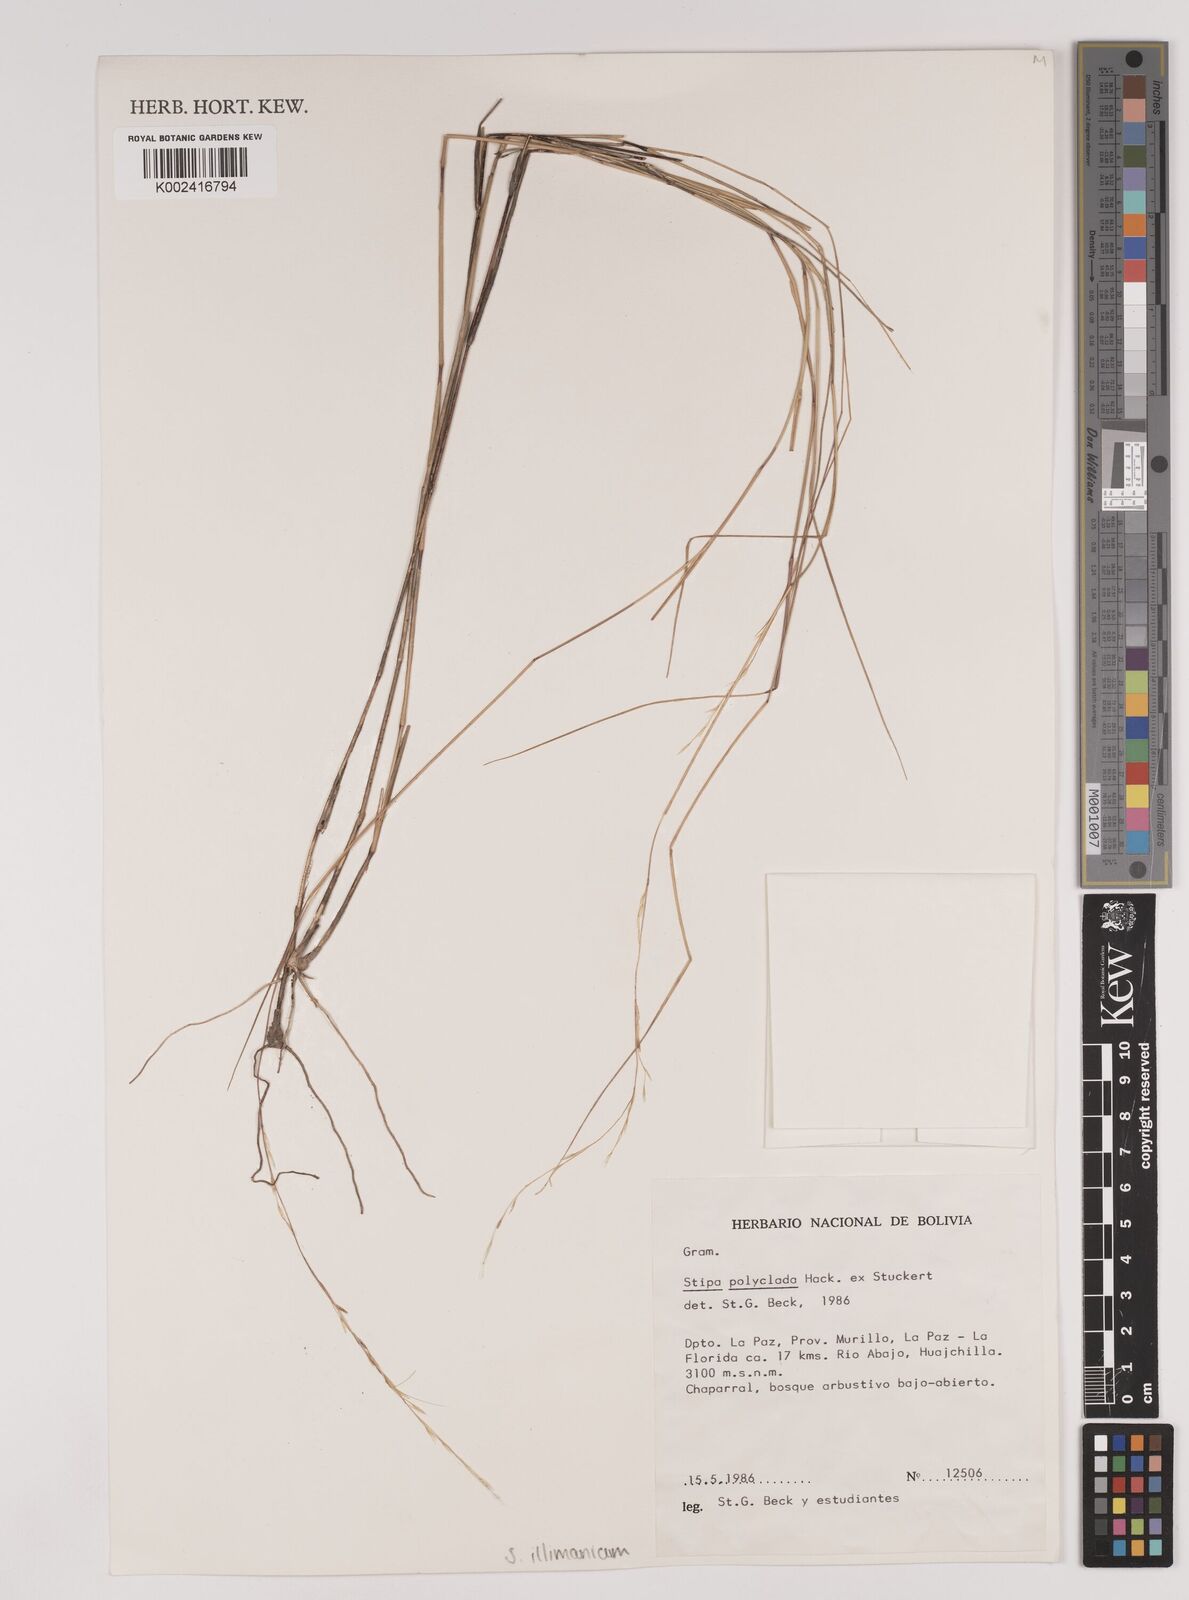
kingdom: Plantae
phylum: Tracheophyta
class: Liliopsida
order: Poales
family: Poaceae
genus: Stipa
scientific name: Stipa illimanica
